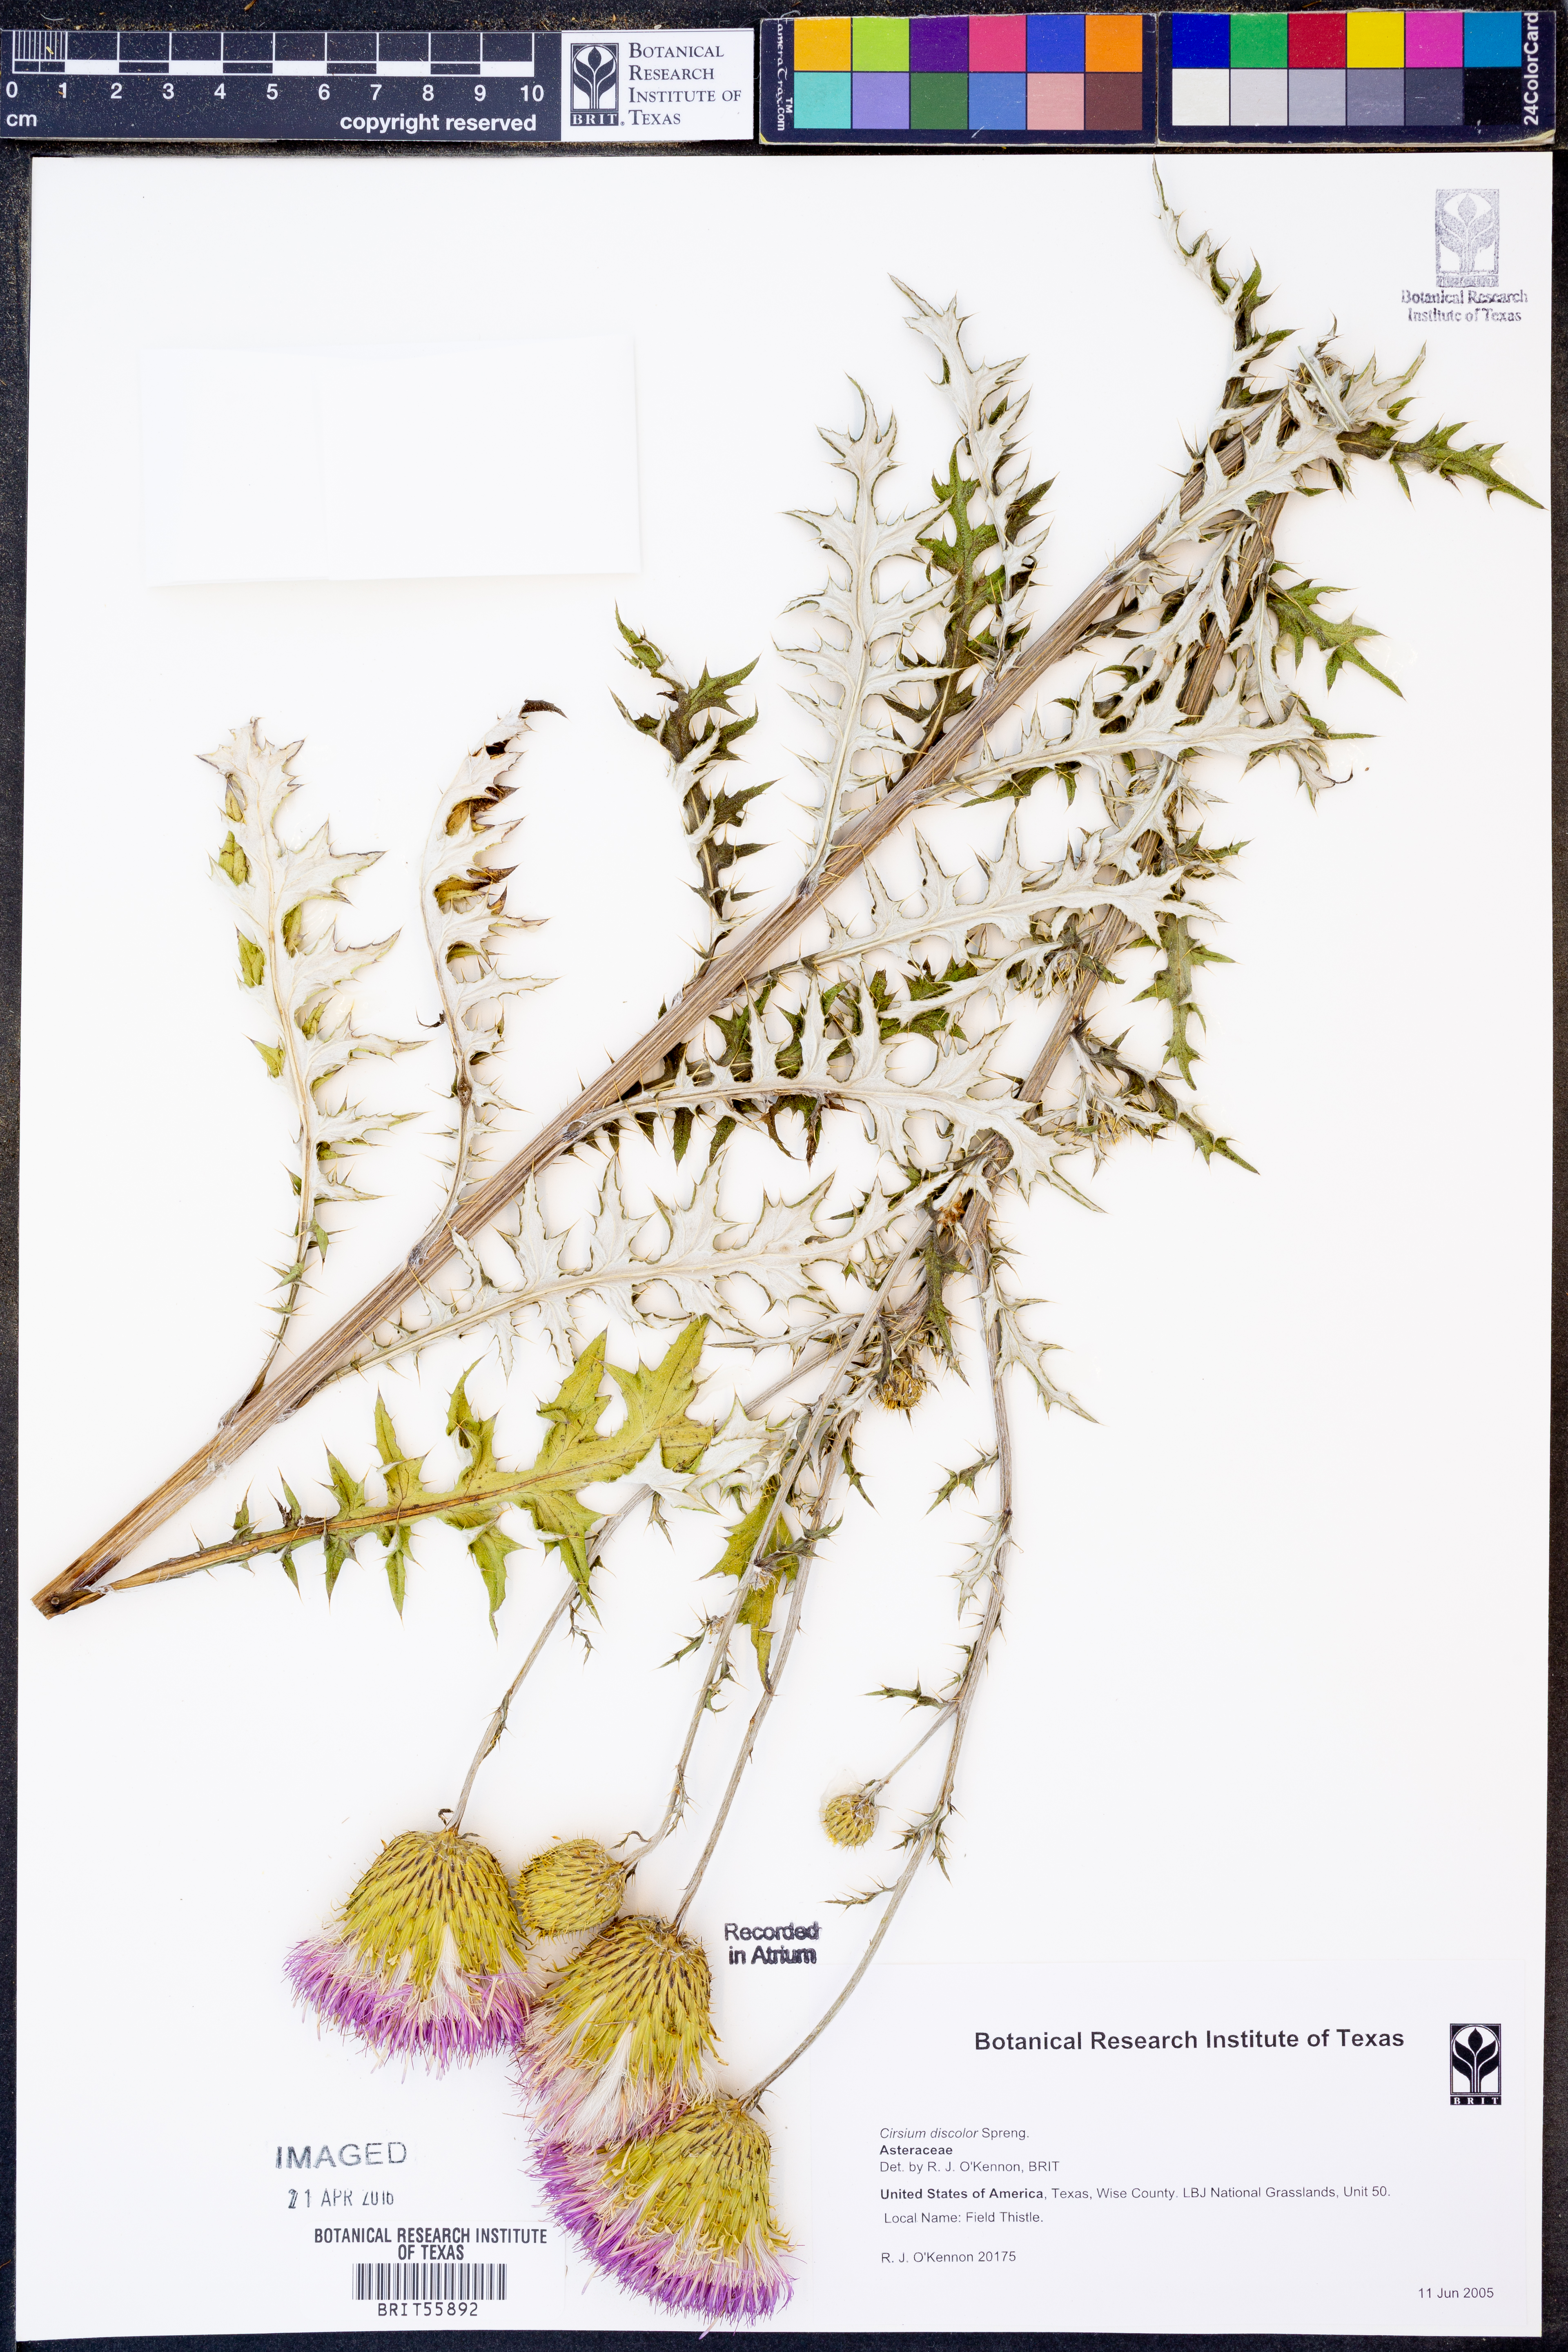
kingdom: Plantae
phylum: Tracheophyta
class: Magnoliopsida
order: Asterales
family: Asteraceae
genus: Cirsium
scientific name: Cirsium discolor
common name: Field thistle
